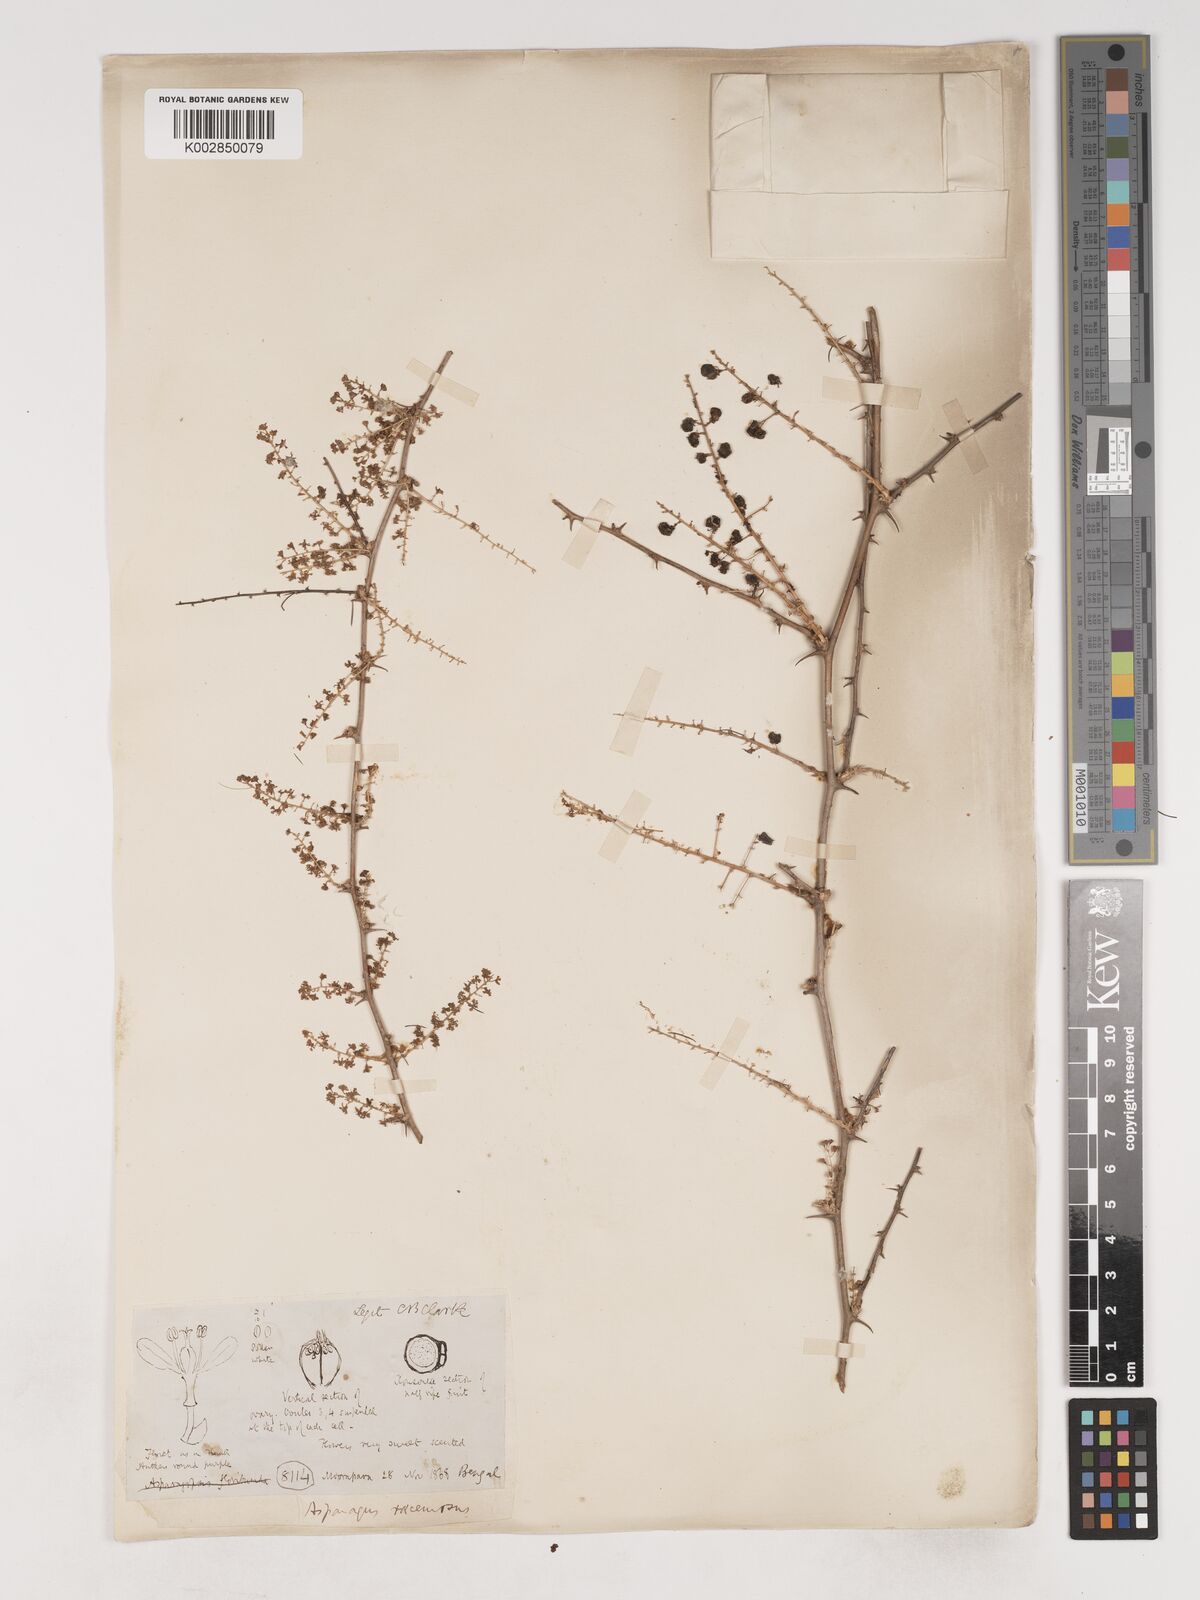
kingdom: Plantae
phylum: Tracheophyta
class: Liliopsida
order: Asparagales
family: Asparagaceae
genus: Asparagus
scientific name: Asparagus racemosus
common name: Asparagus-fern
